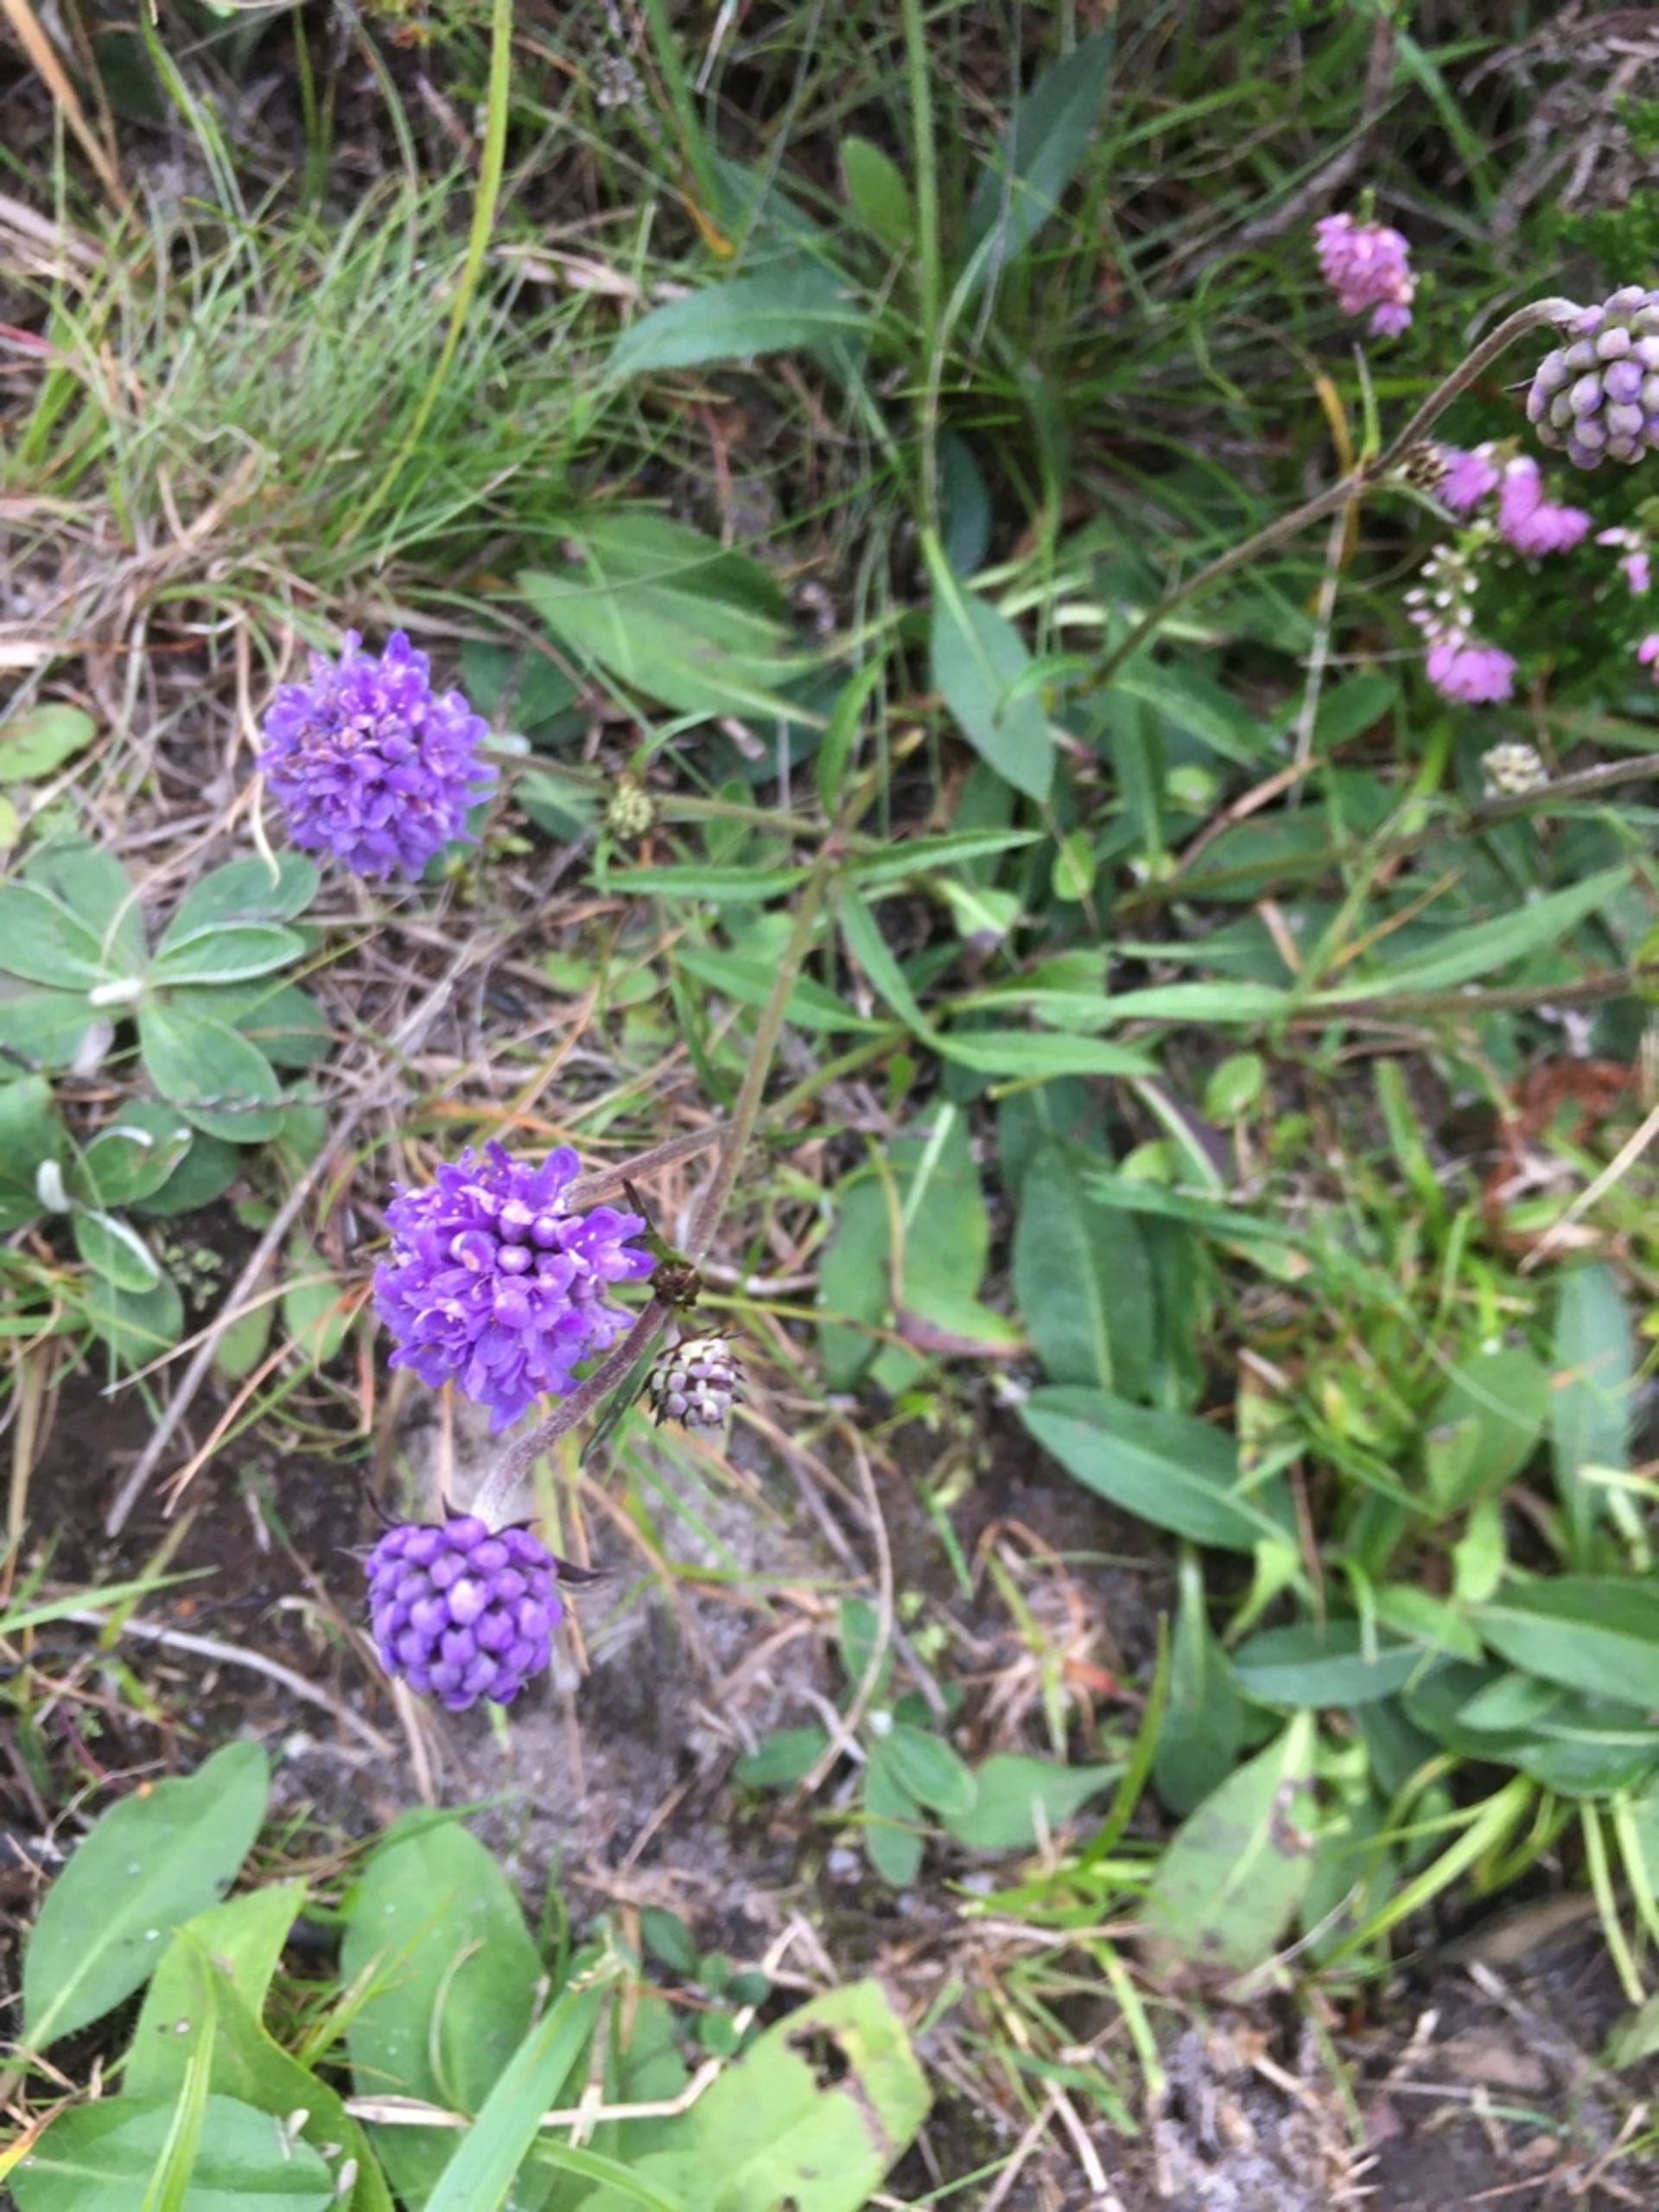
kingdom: Plantae
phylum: Tracheophyta
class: Magnoliopsida
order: Dipsacales
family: Caprifoliaceae
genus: Succisa
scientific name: Succisa pratensis
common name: Djævelsbid
